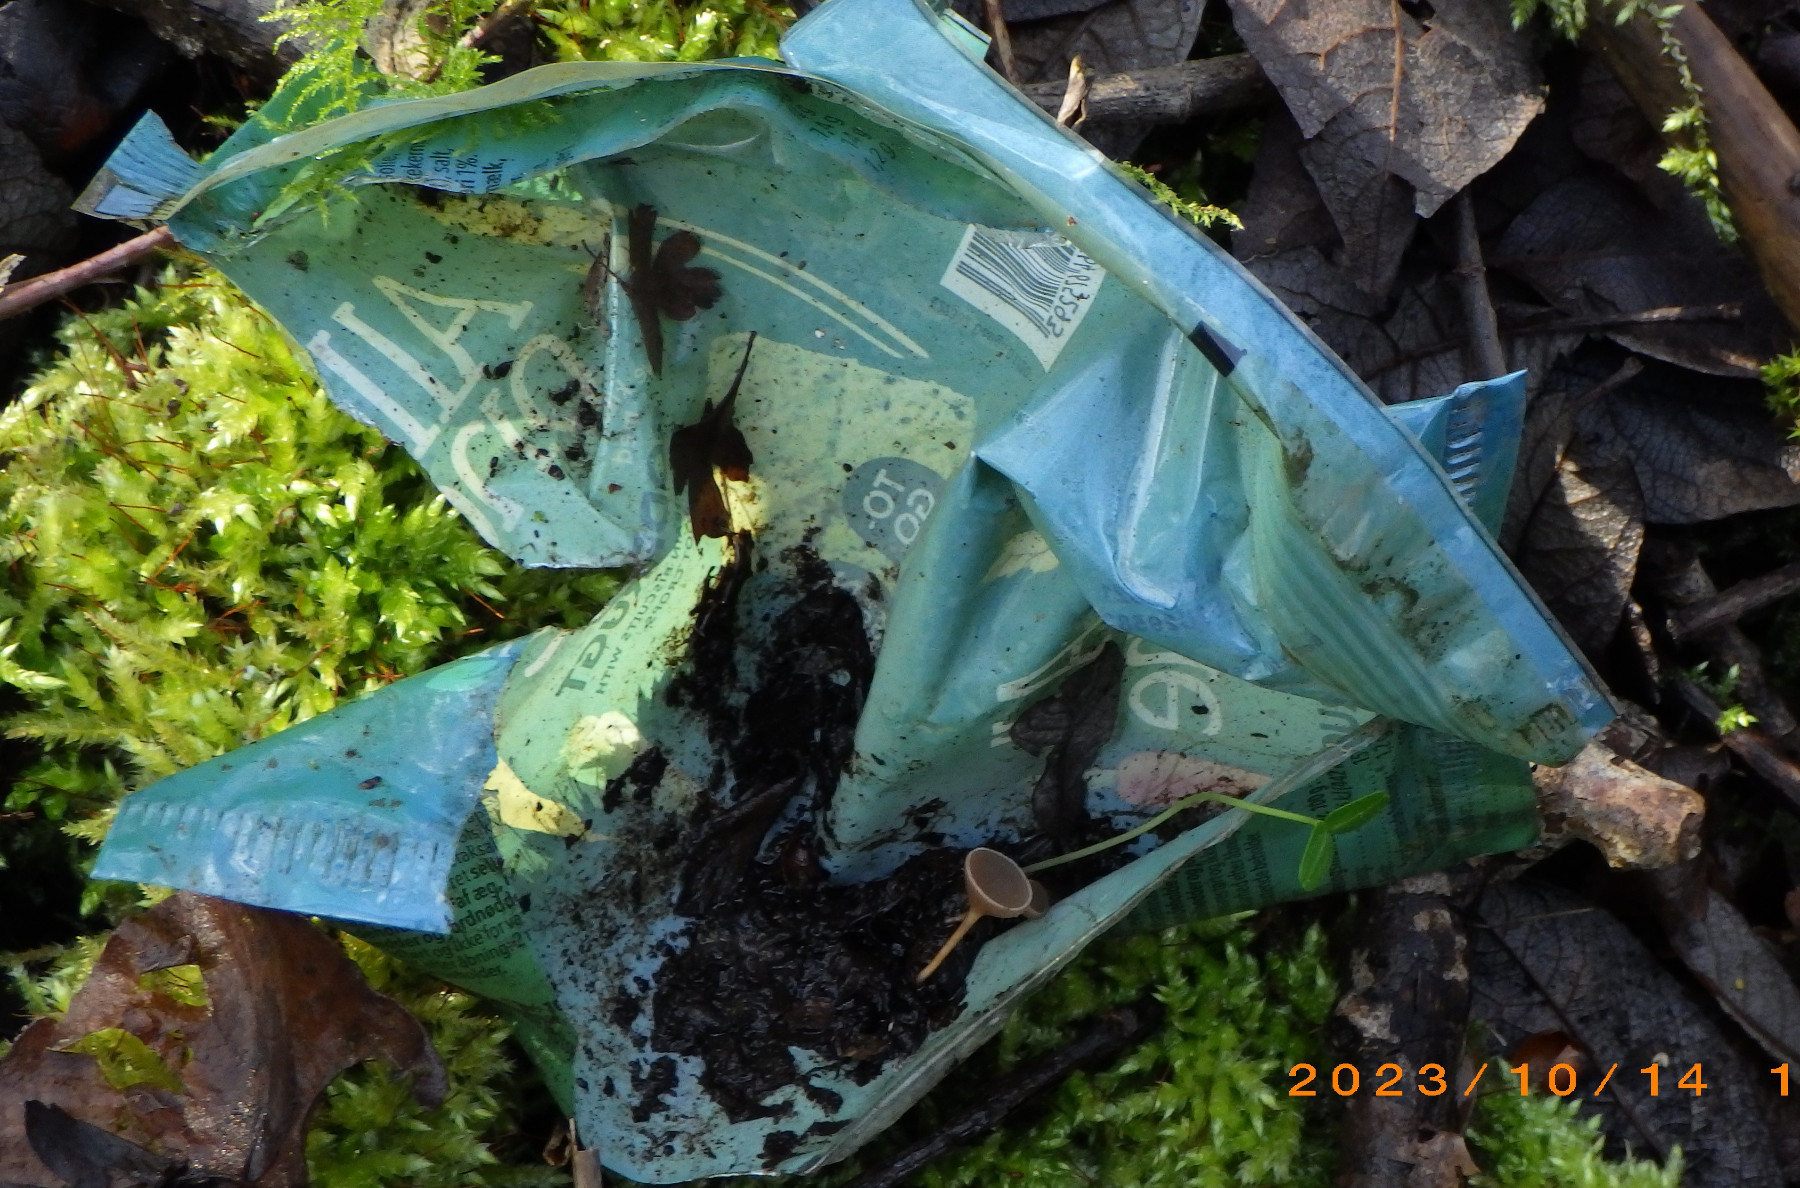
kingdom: Fungi
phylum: Ascomycota
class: Leotiomycetes
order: Helotiales
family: Sclerotiniaceae
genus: Ciboria
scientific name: Ciboria caucus
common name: rakle-knoldskive
